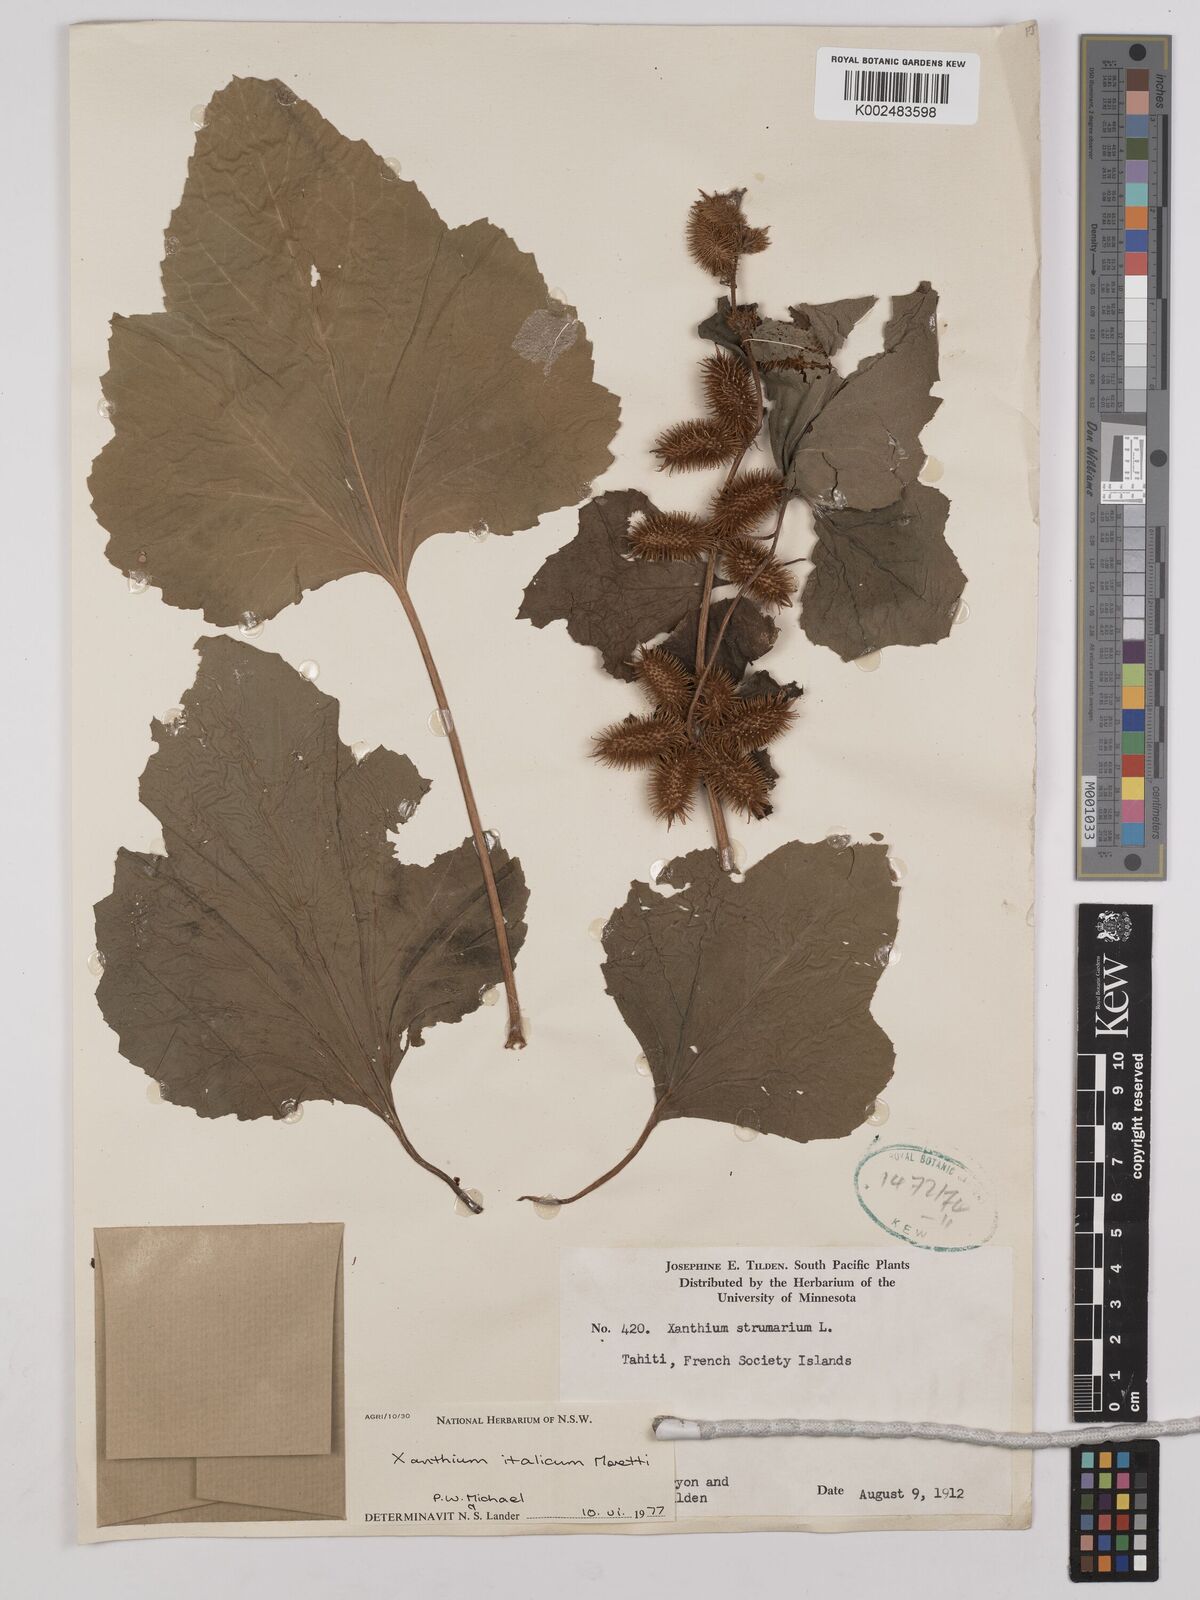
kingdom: Plantae
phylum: Tracheophyta
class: Magnoliopsida
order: Asterales
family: Asteraceae
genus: Xanthium
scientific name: Xanthium strumarium
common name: Rough cocklebur
